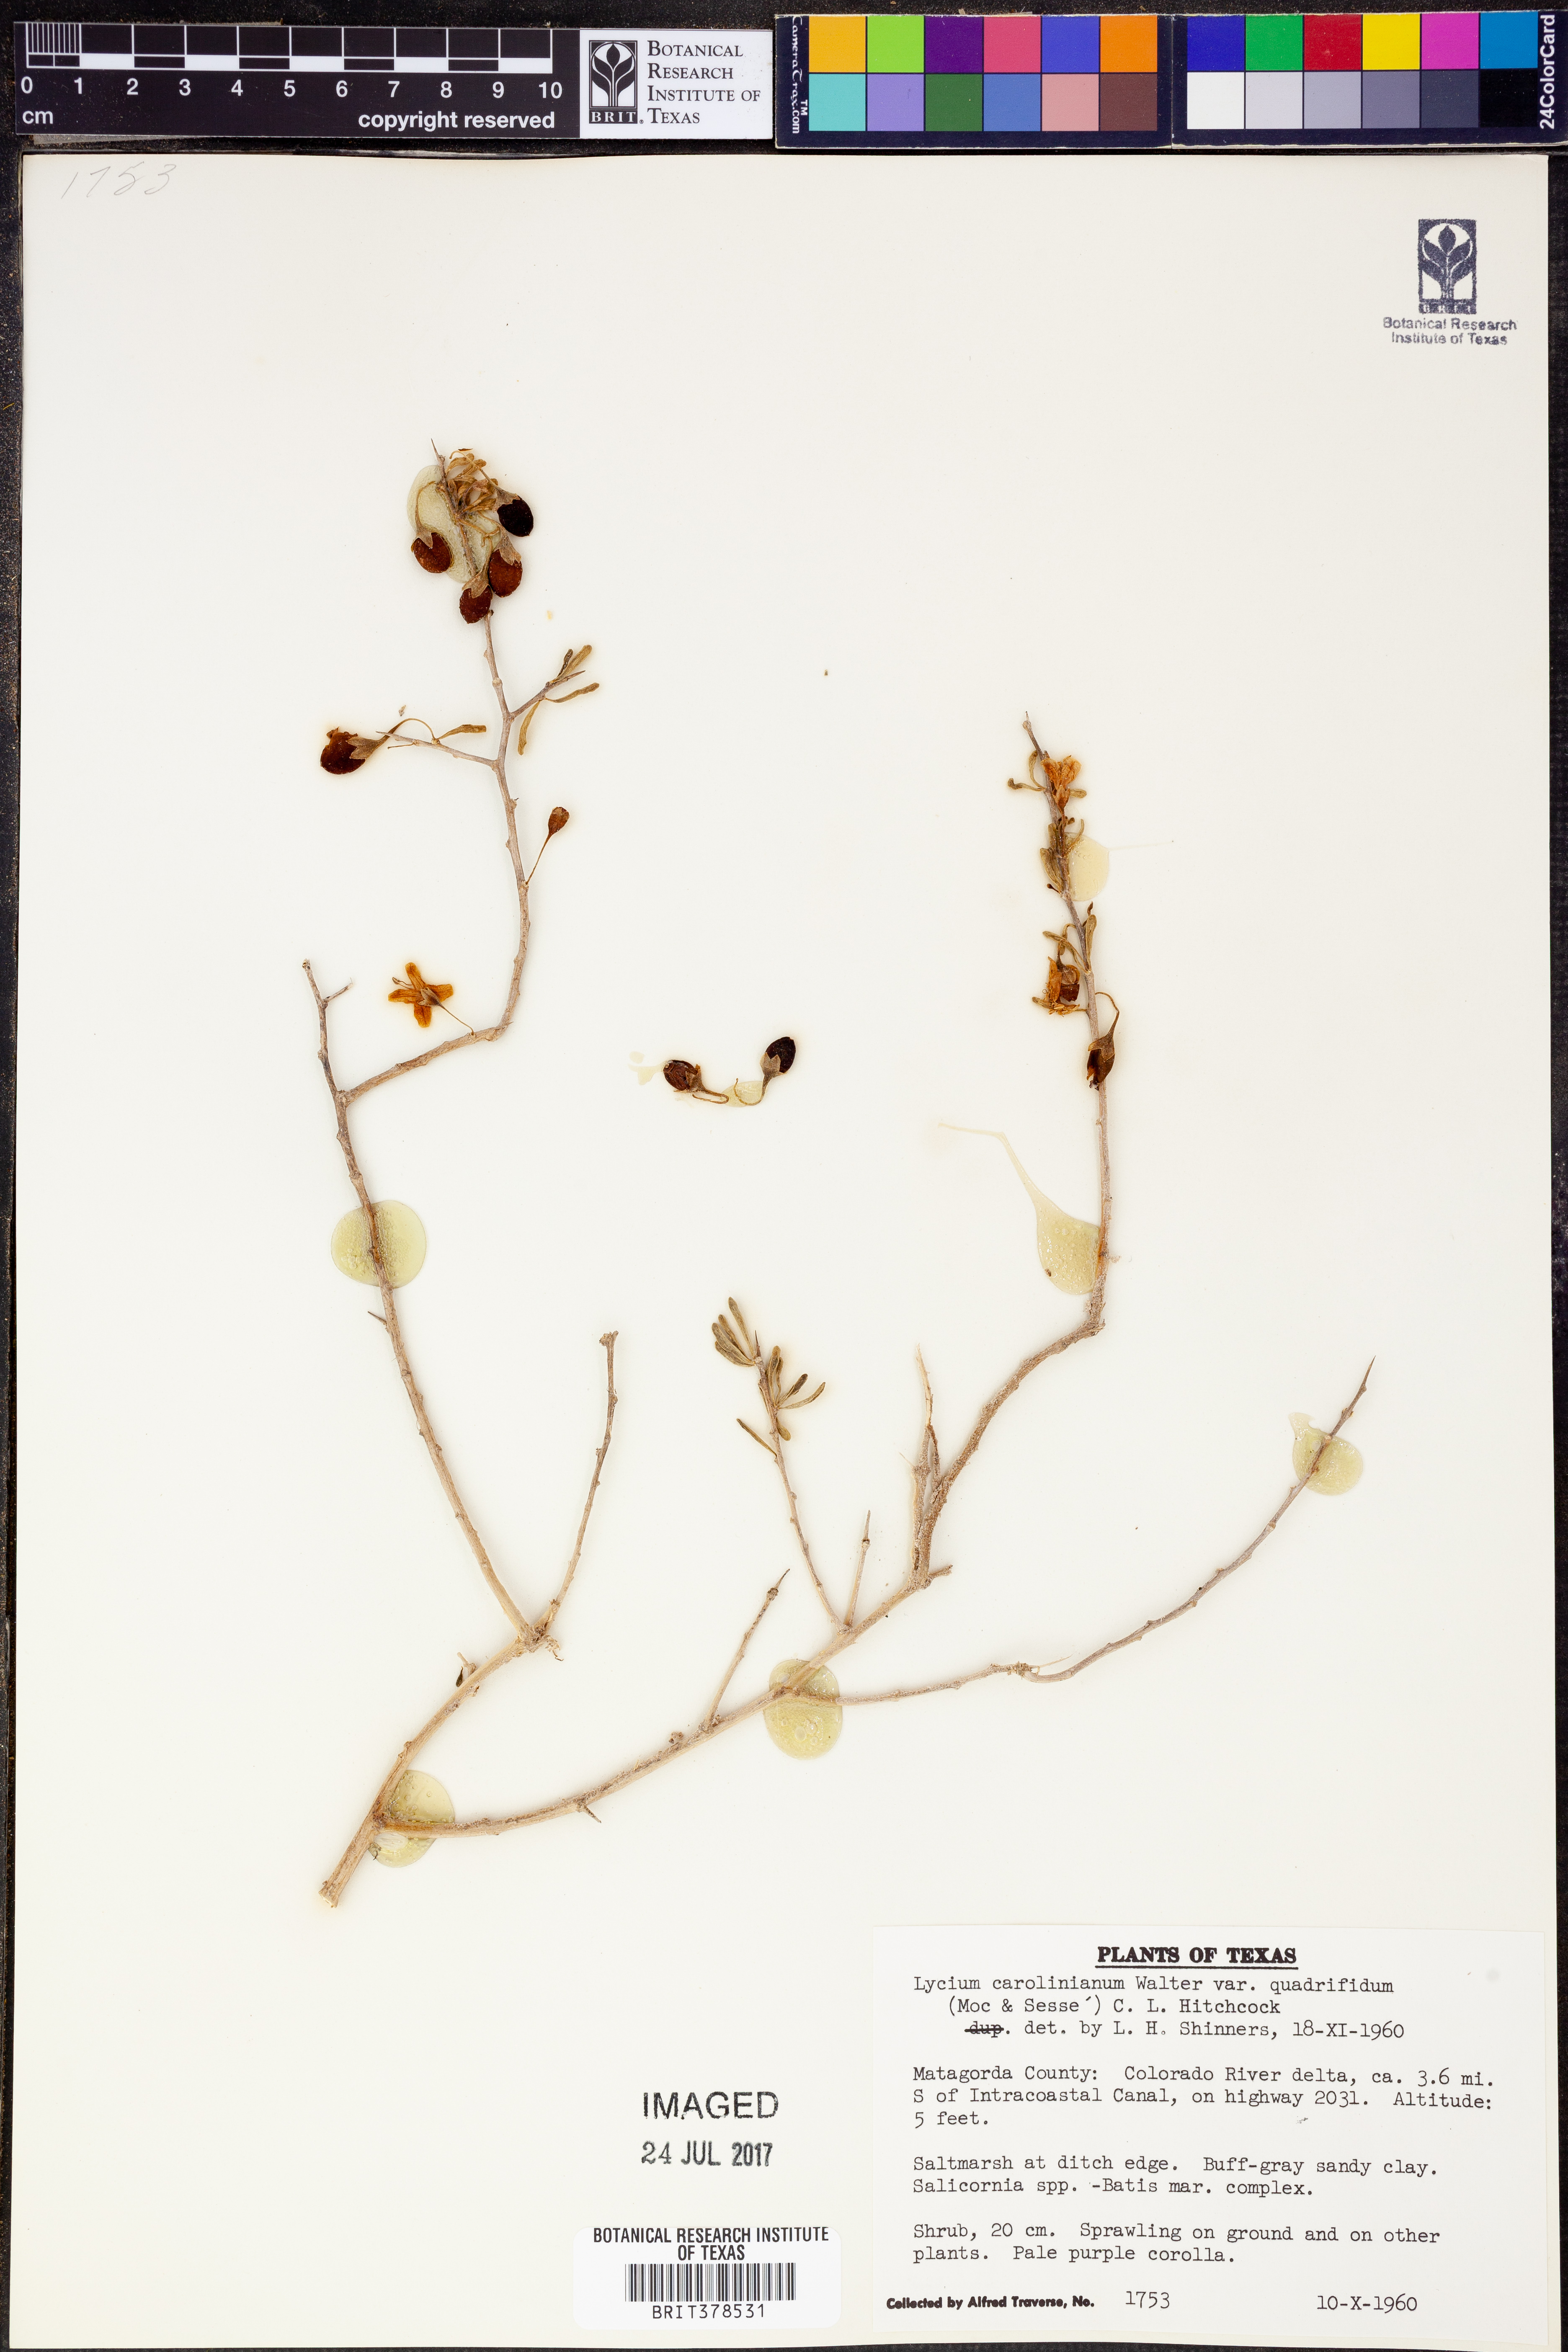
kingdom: Plantae
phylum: Tracheophyta
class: Magnoliopsida
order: Solanales
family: Solanaceae
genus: Lycium
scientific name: Lycium carolinianum
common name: Christmasberry
